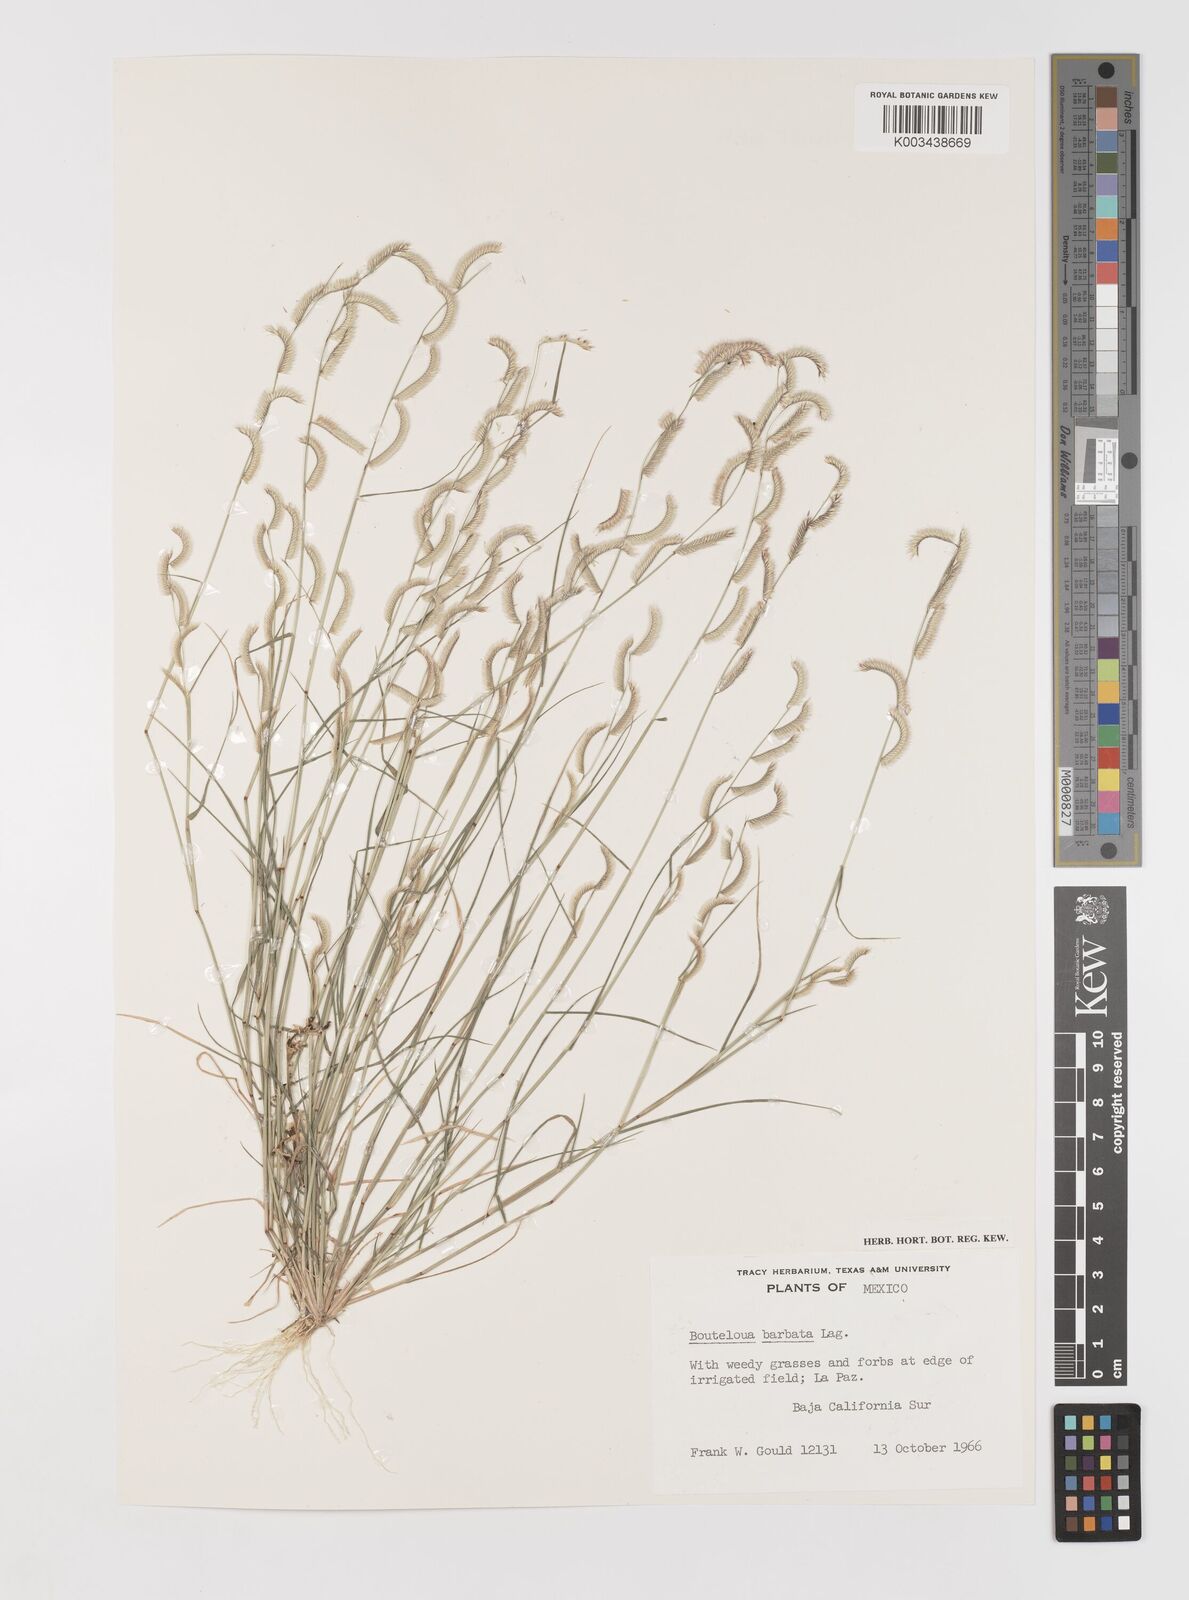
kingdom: Plantae
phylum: Tracheophyta
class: Liliopsida
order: Poales
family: Poaceae
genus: Bouteloua
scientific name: Bouteloua
